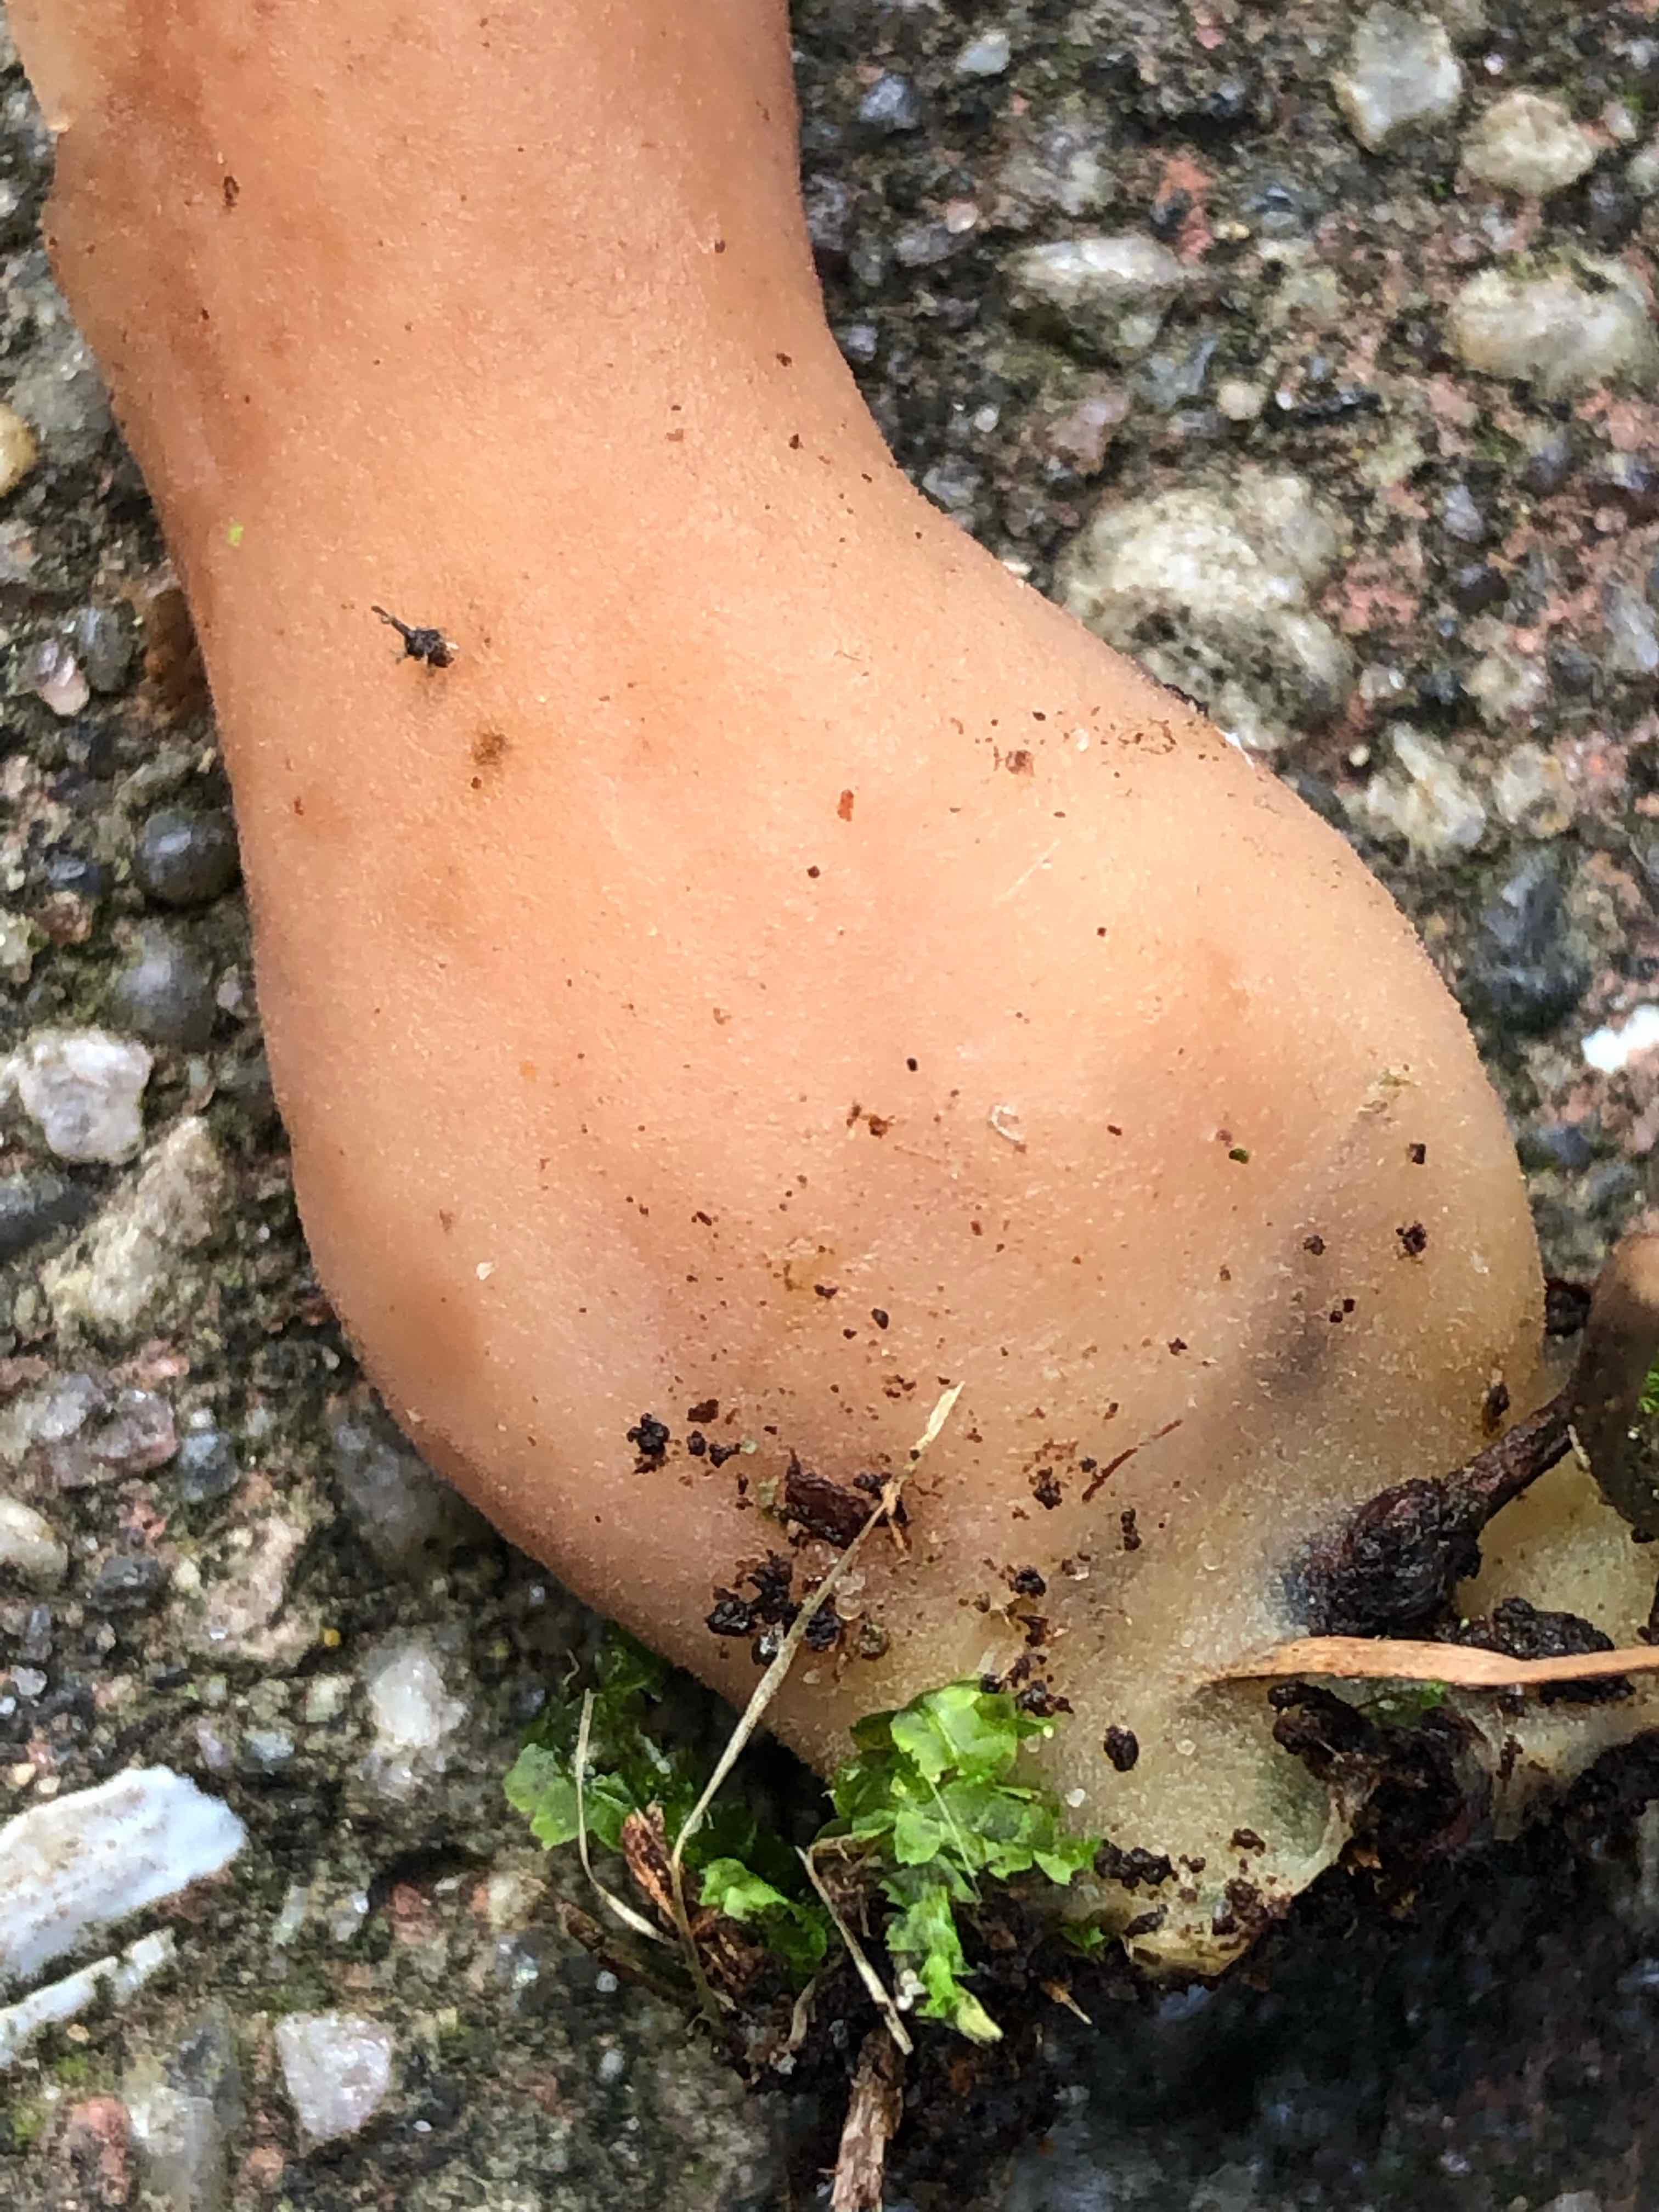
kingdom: Fungi
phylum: Ascomycota
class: Pezizomycetes
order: Pezizales
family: Discinaceae
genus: Gyromitra
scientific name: Gyromitra infula
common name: bispehue-stenmorkel
